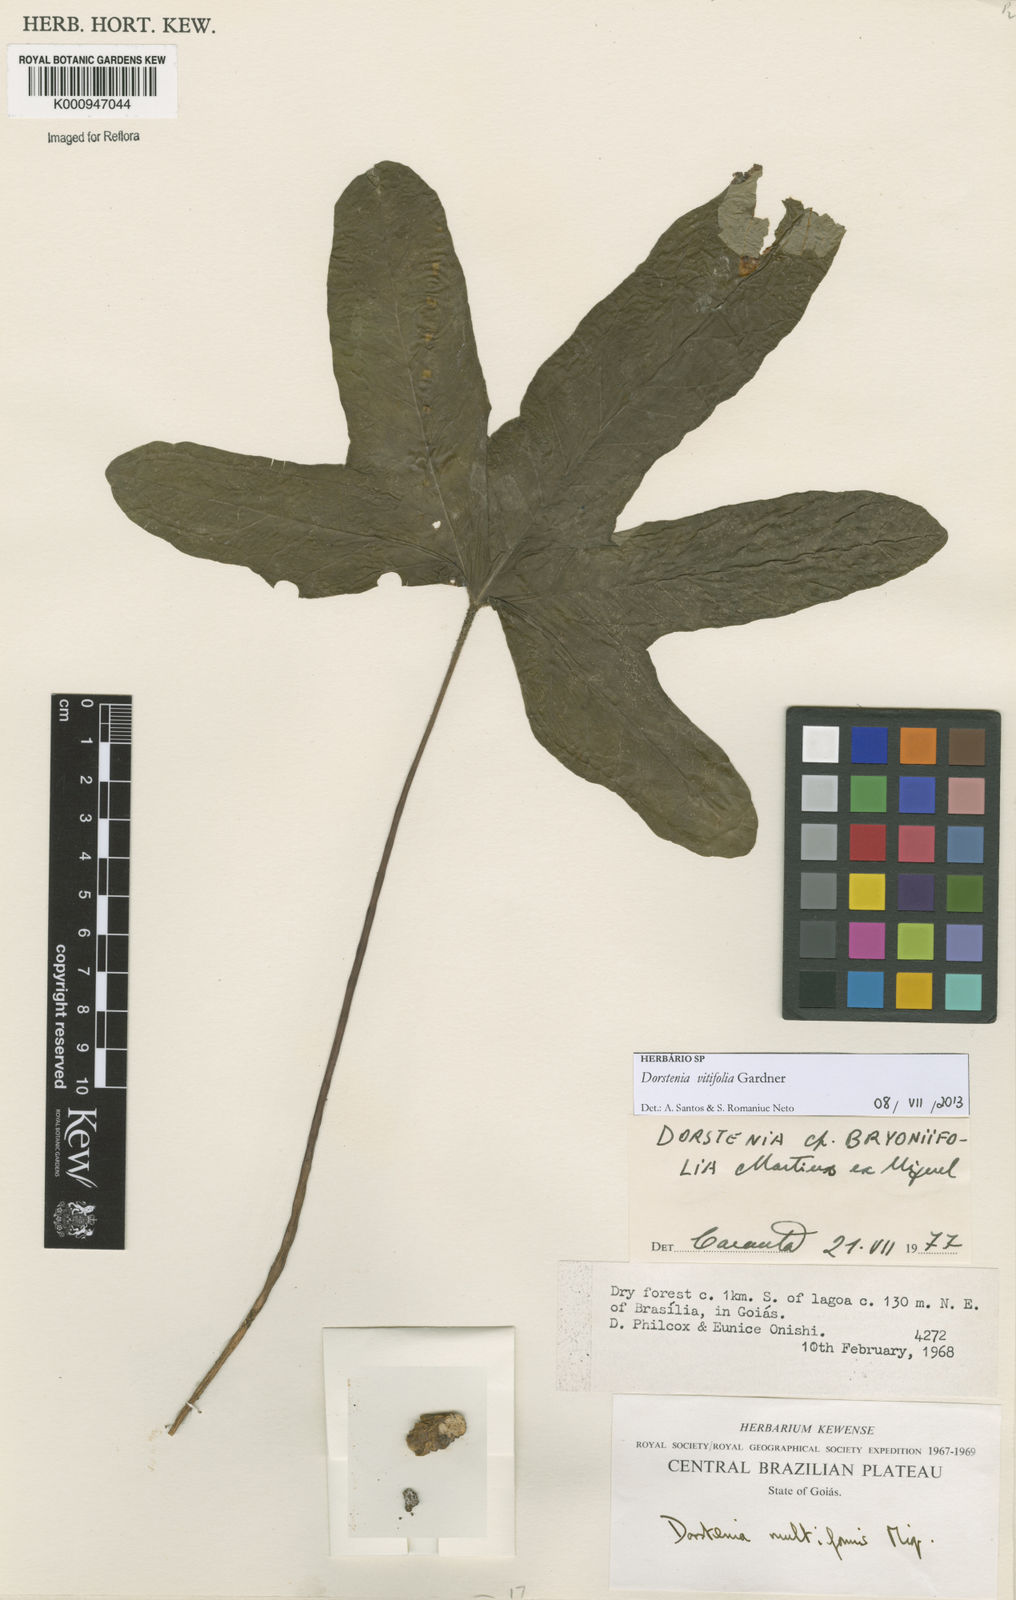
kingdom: Plantae
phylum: Tracheophyta
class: Magnoliopsida
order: Rosales
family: Moraceae
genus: Dorstenia
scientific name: Dorstenia cayapia
